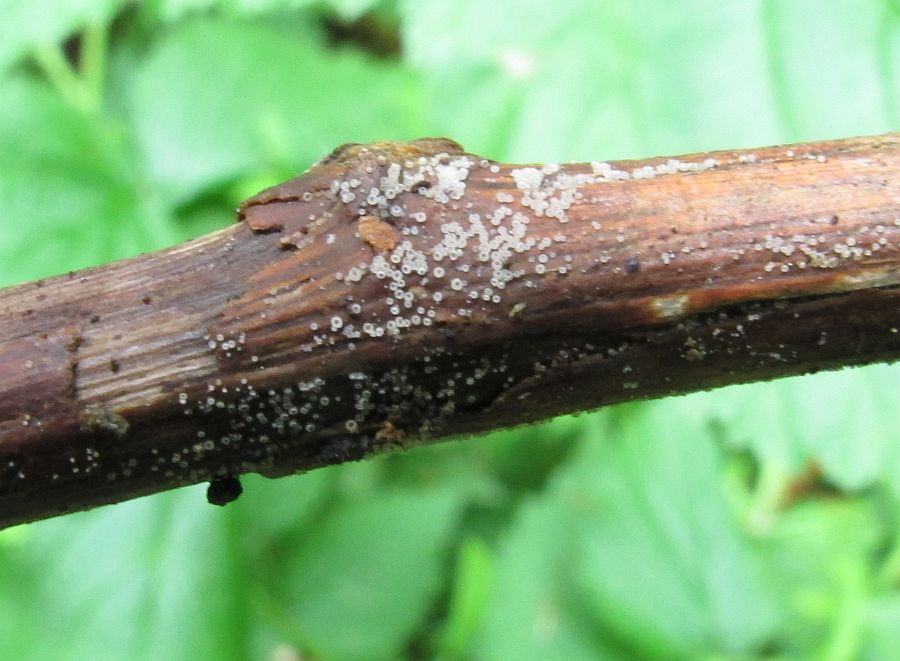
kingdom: Fungi
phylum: Ascomycota
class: Leotiomycetes
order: Helotiales
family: Hyaloscyphaceae
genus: Hyalopeziza
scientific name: Hyalopeziza millepunctata
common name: almindelig kugleskive
